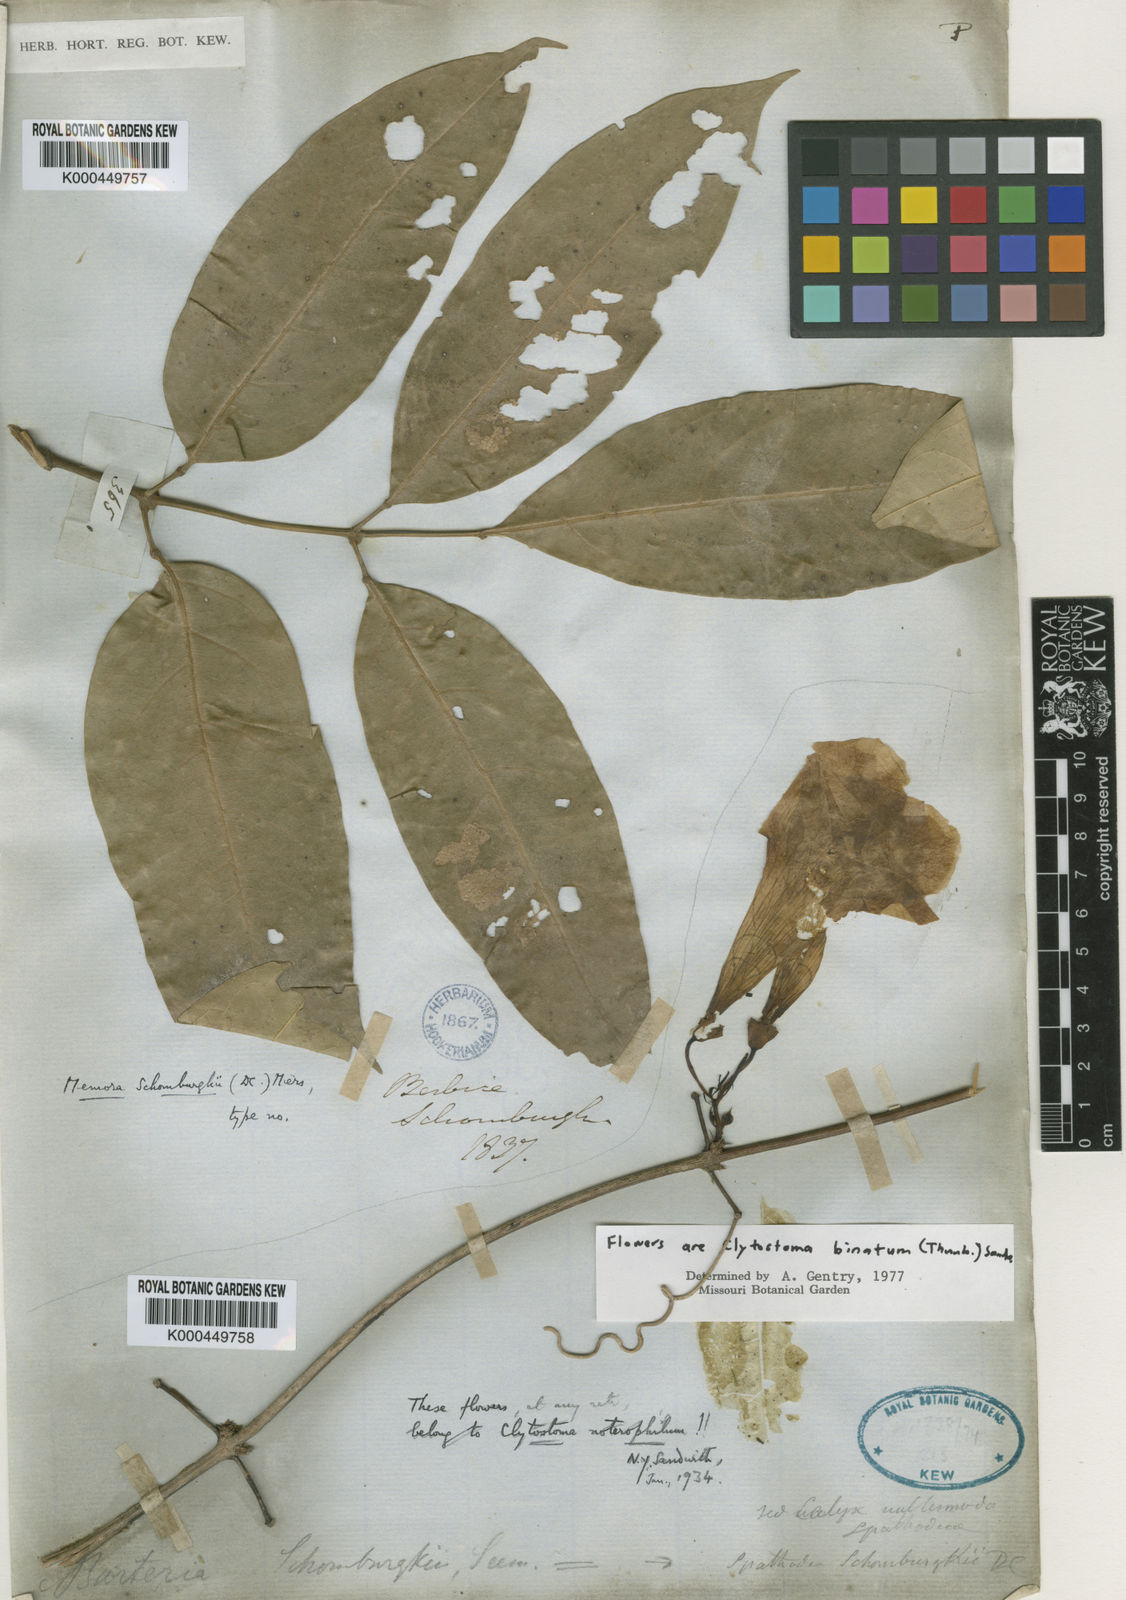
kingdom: Plantae
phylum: Tracheophyta
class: Magnoliopsida
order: Lamiales
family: Bignoniaceae
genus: Adenocalymma
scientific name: Adenocalymma schomburgkii
